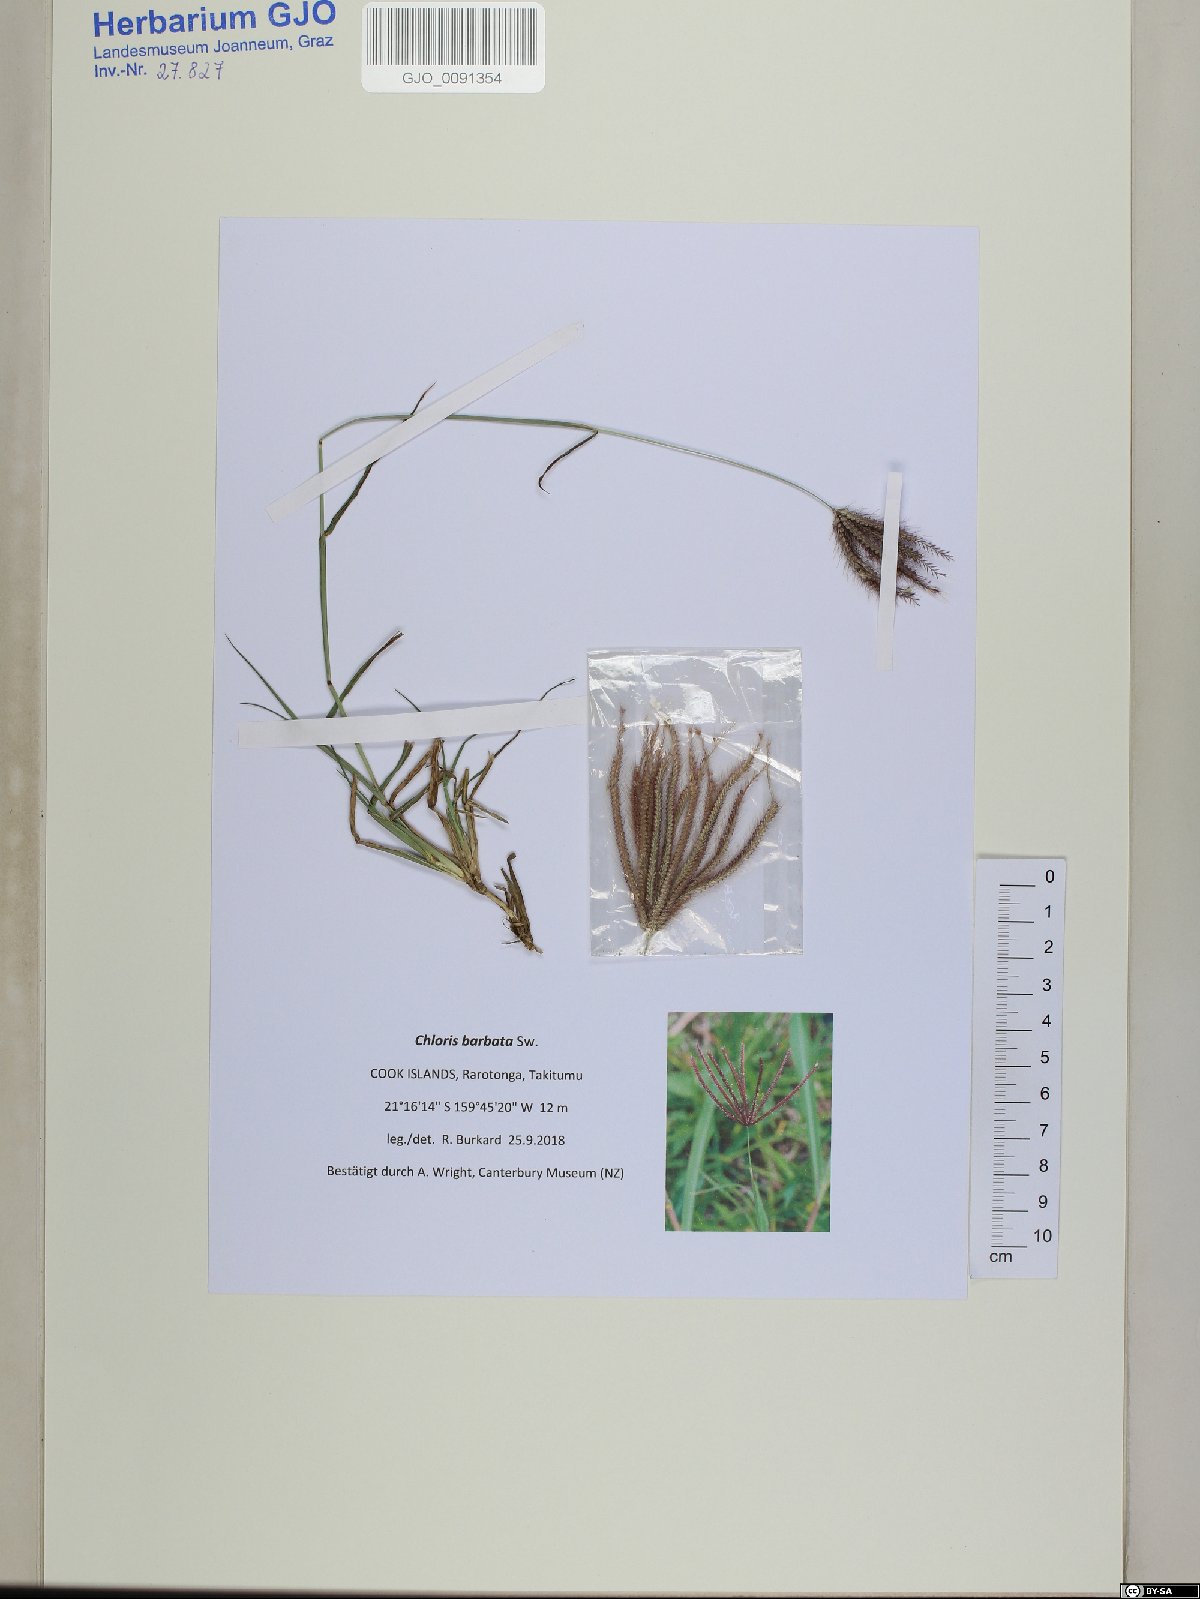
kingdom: Plantae
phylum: Tracheophyta
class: Liliopsida
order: Poales
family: Poaceae
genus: Chloris
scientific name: Chloris barbata
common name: Swollen fingergrass
